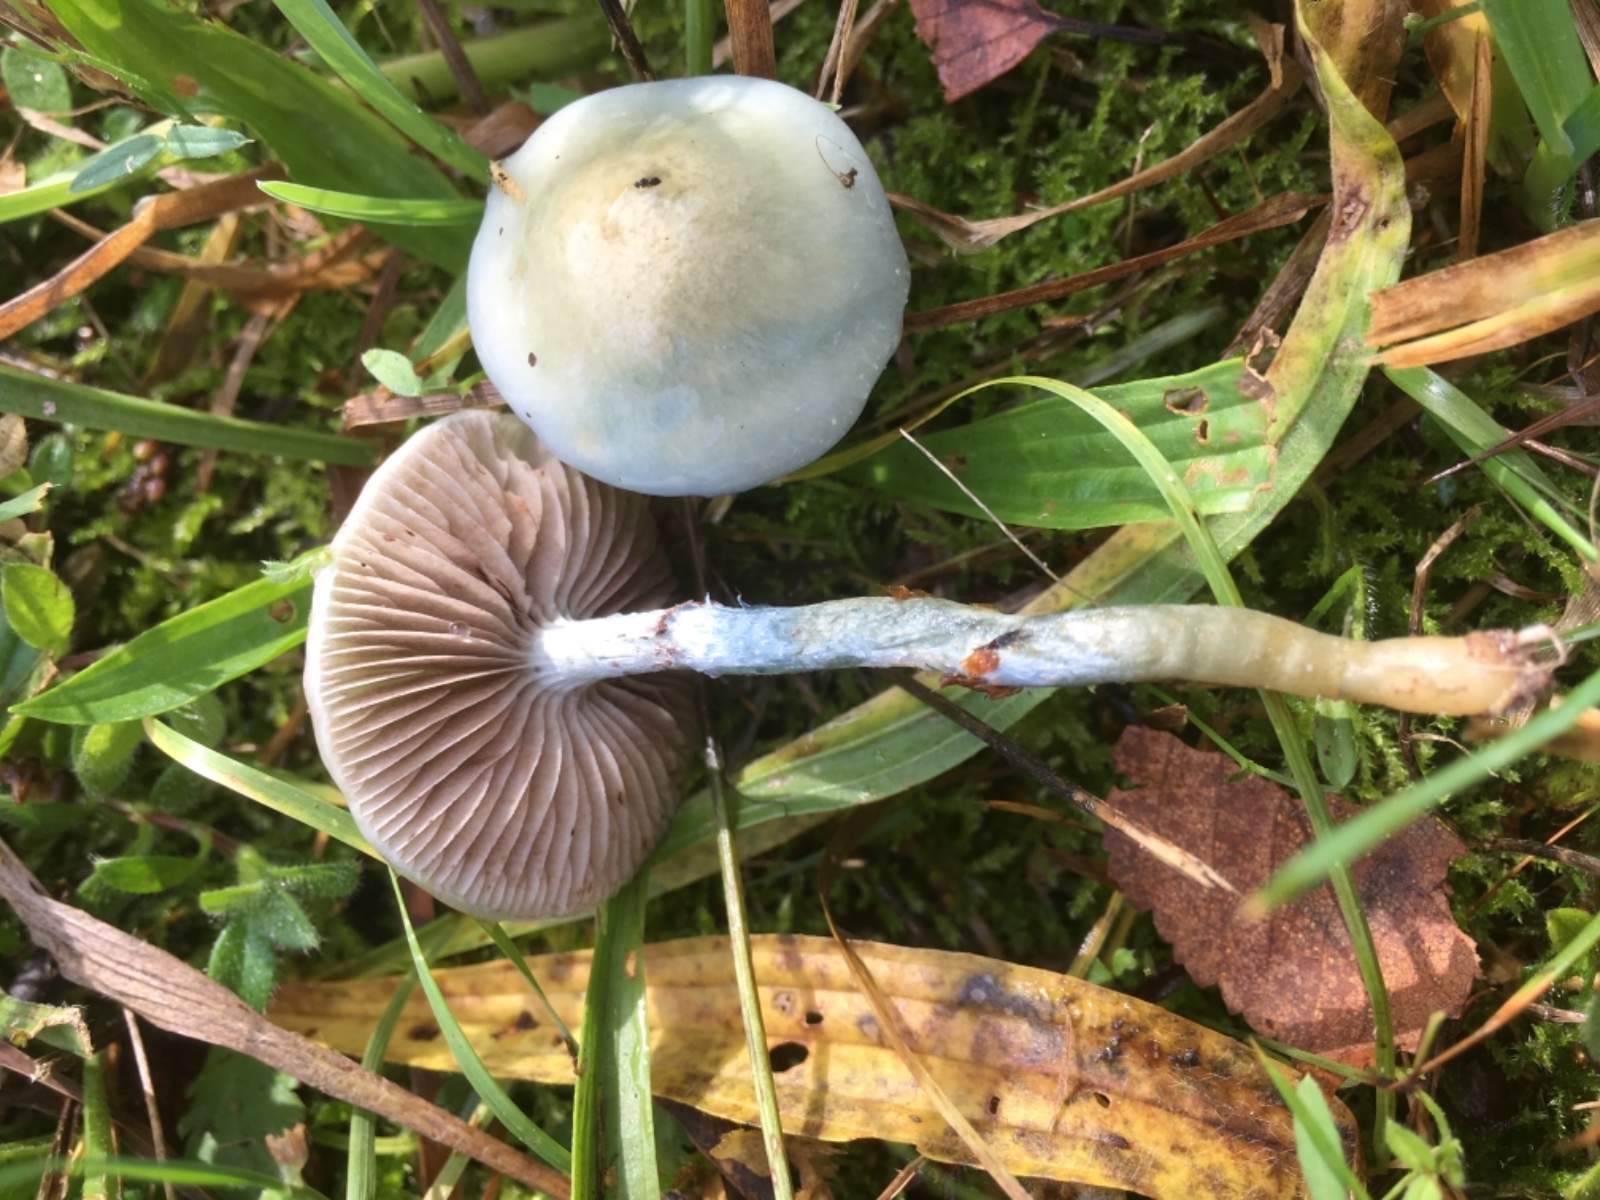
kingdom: Fungi
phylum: Basidiomycota
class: Agaricomycetes
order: Agaricales
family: Strophariaceae
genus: Stropharia
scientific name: Stropharia cyanea
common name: blågrøn bredblad
